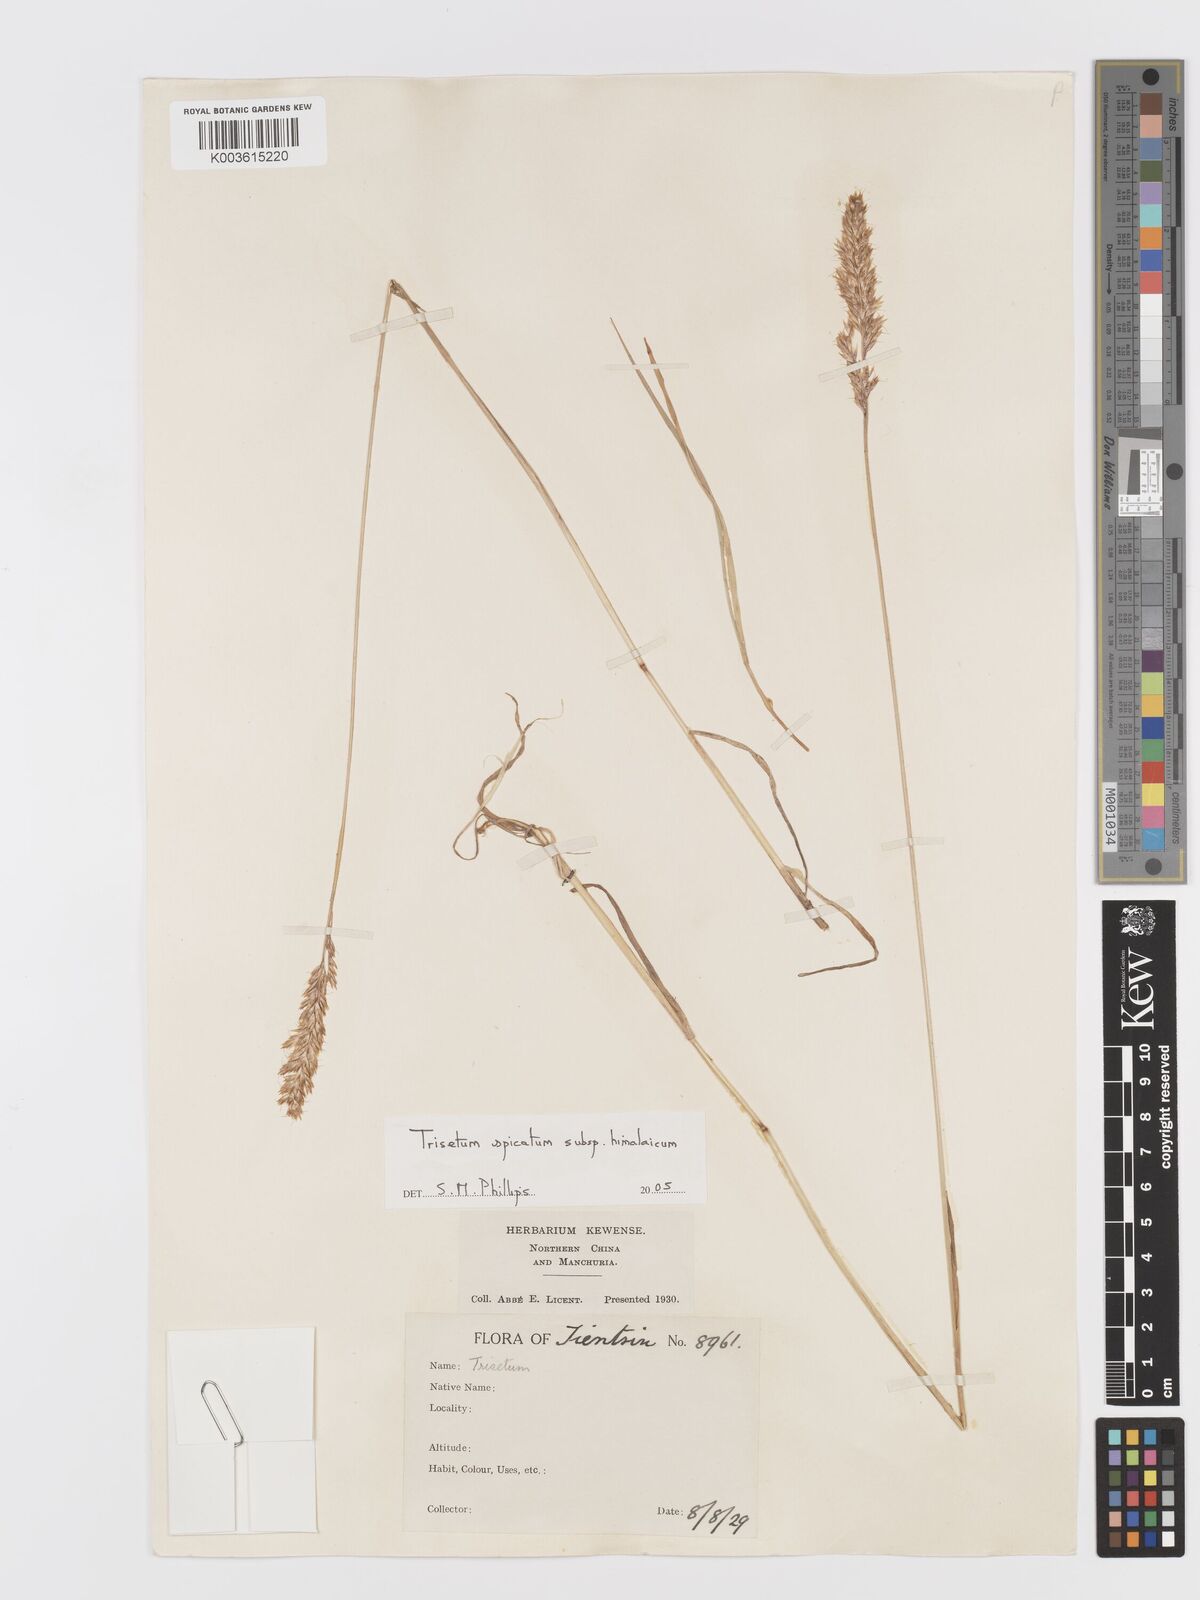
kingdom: Plantae
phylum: Tracheophyta
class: Liliopsida
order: Poales
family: Poaceae
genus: Koeleria
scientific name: Koeleria spicata
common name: Mountain trisetum
